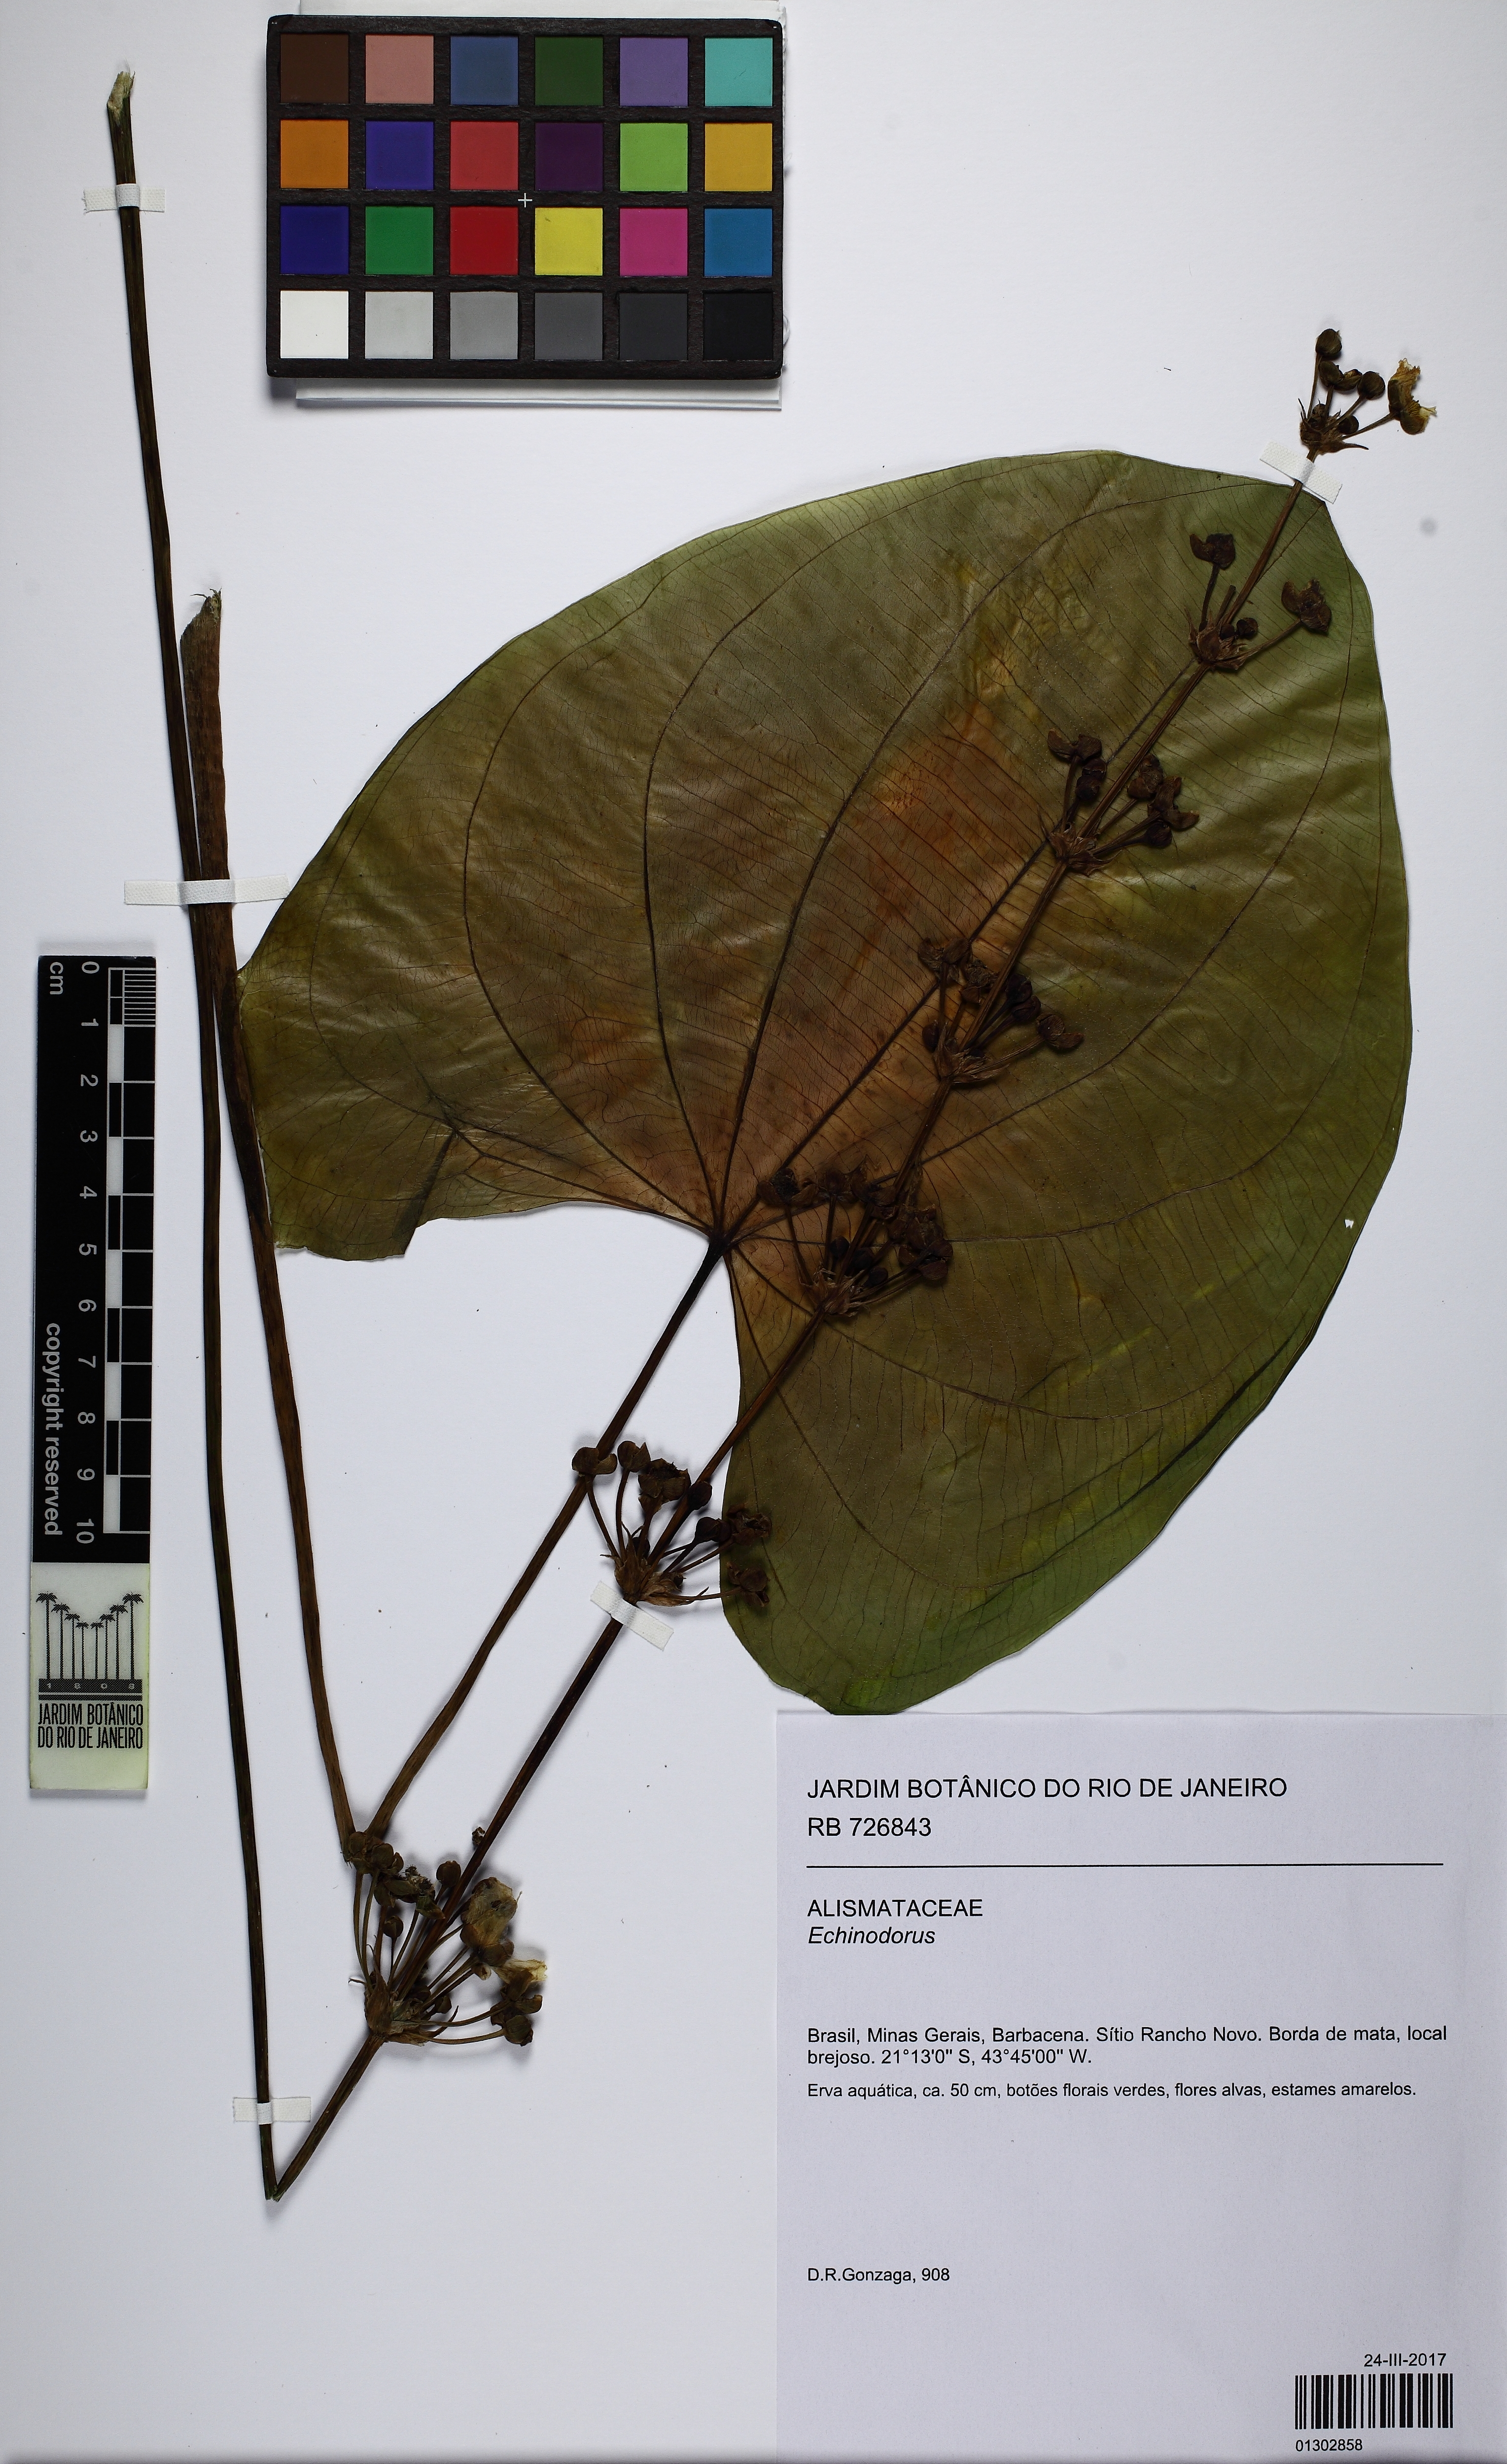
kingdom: Plantae
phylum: Tracheophyta
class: Liliopsida
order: Alismatales
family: Alismataceae
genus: Echinodorus
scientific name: Echinodorus
